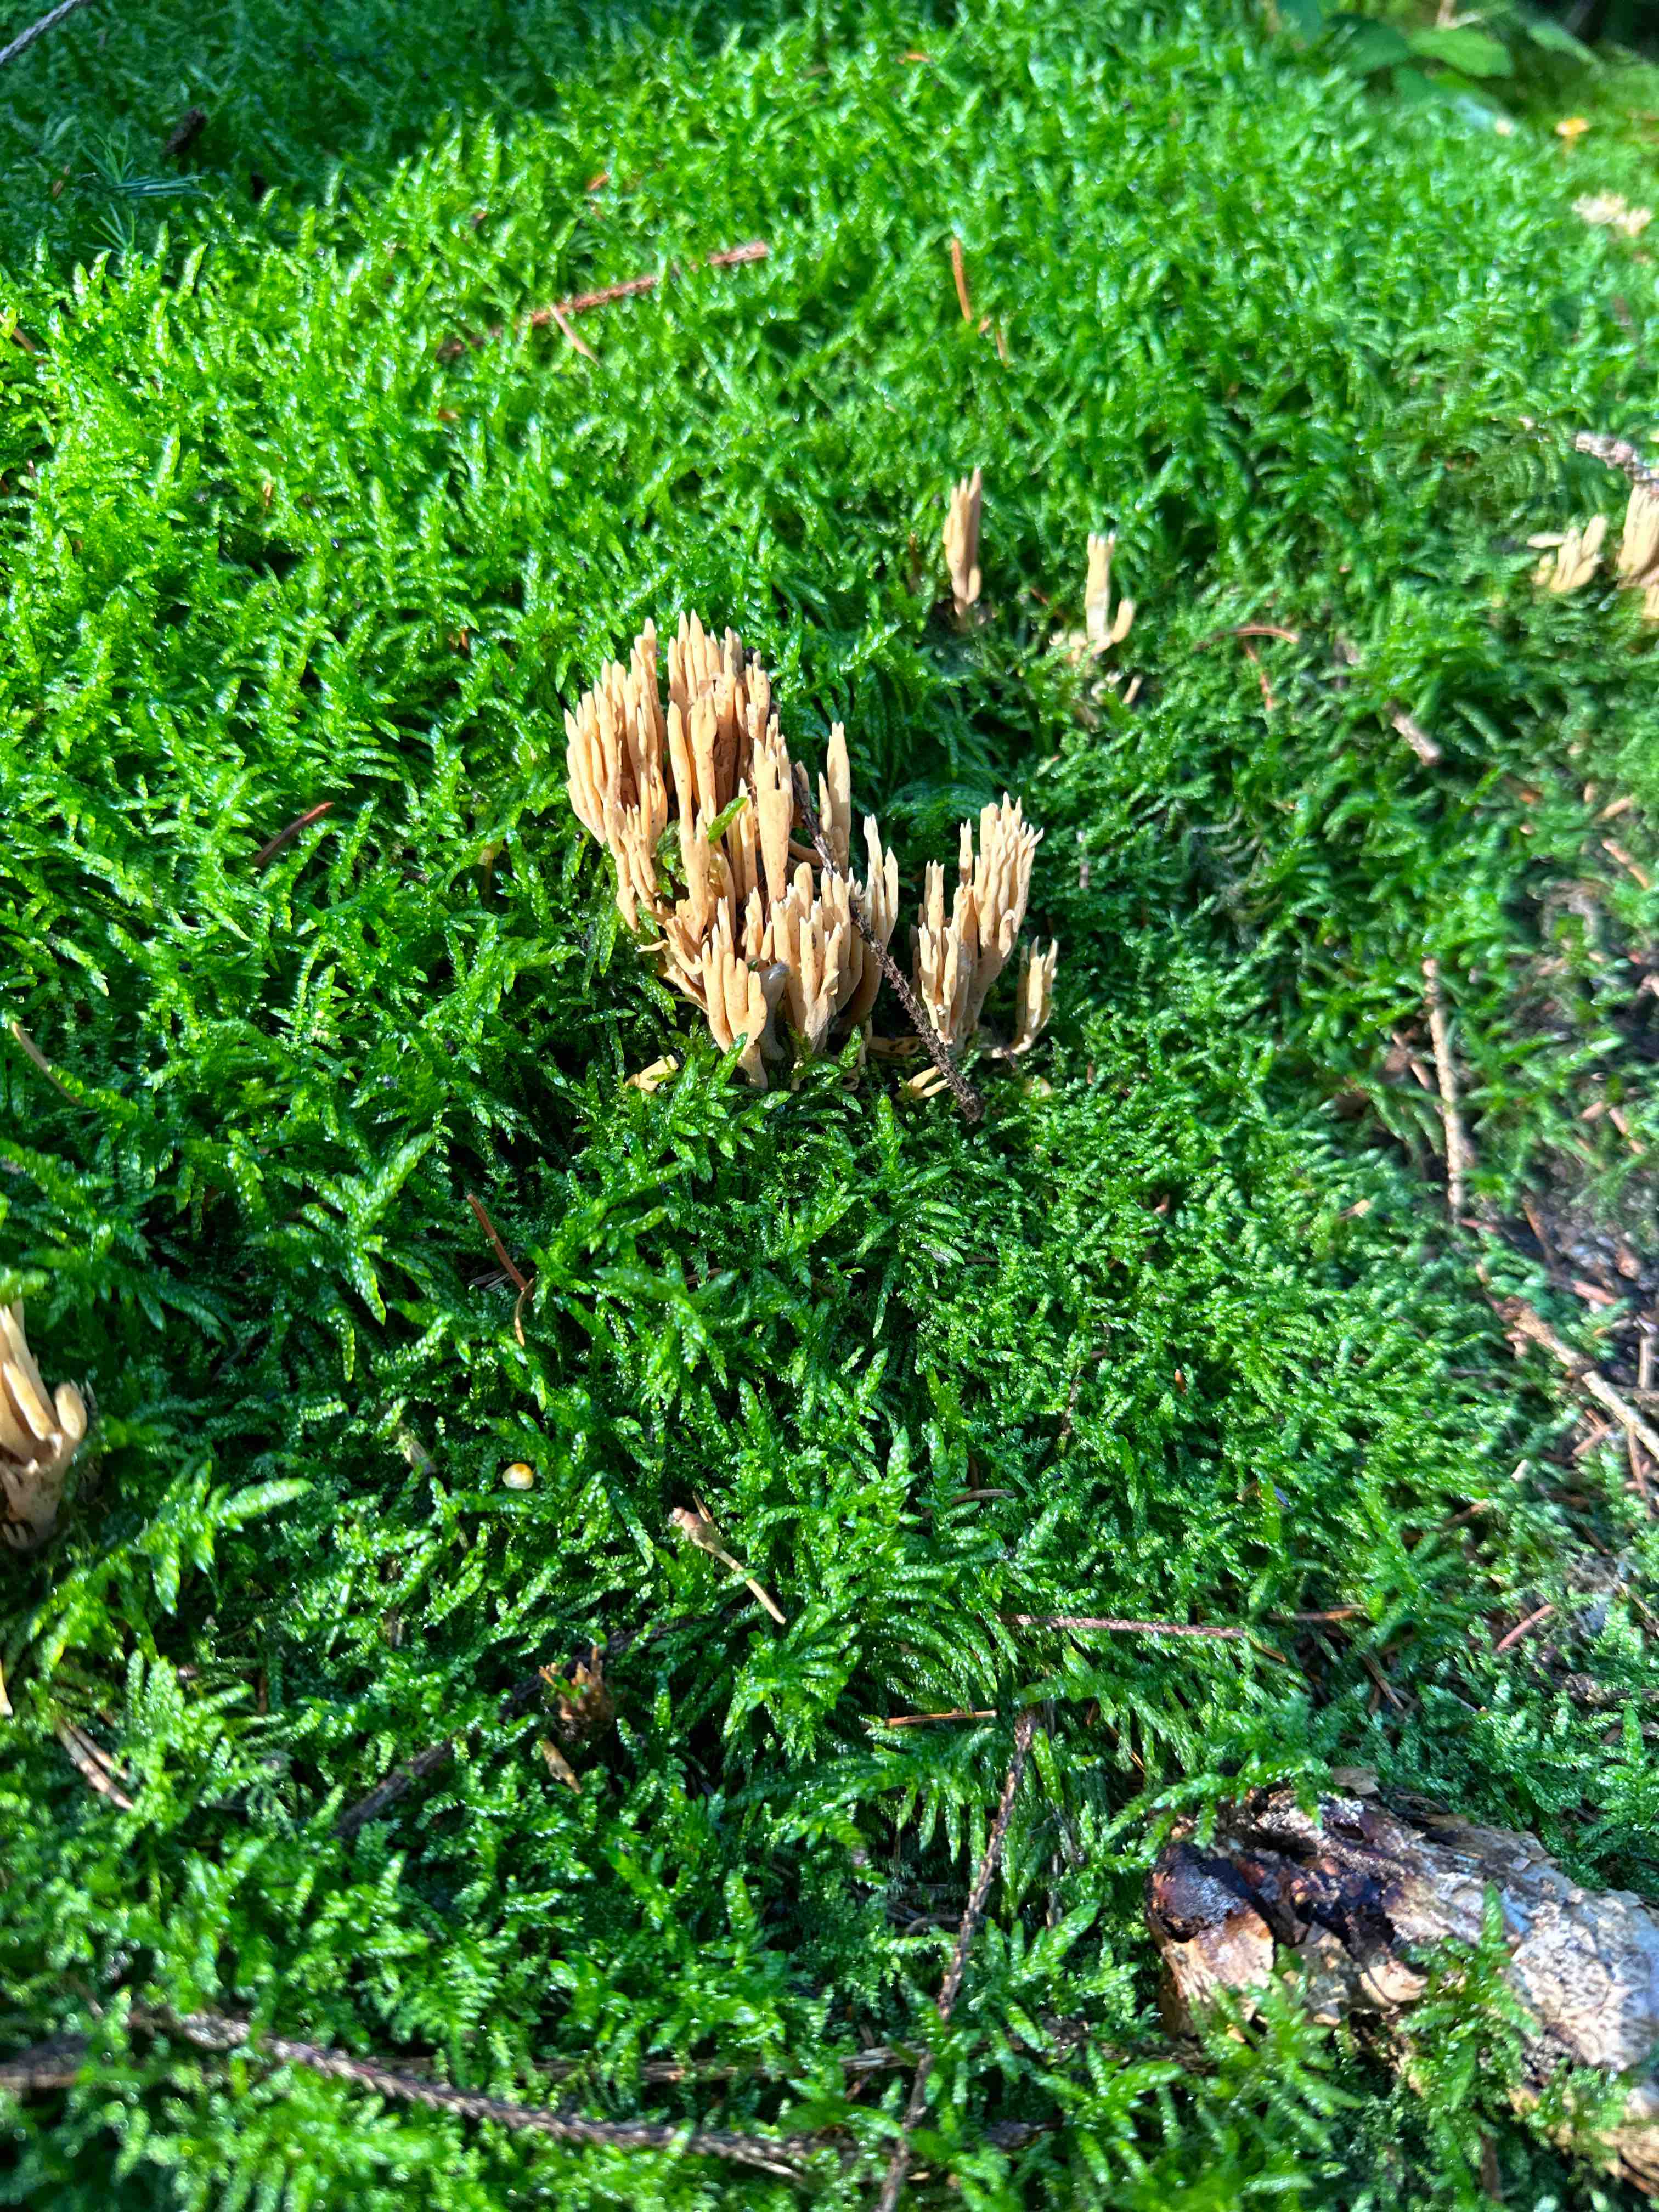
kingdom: Fungi
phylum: Basidiomycota
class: Agaricomycetes
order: Gomphales
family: Gomphaceae
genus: Phaeoclavulina
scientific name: Phaeoclavulina eumorpha
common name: gran-koralsvamp
